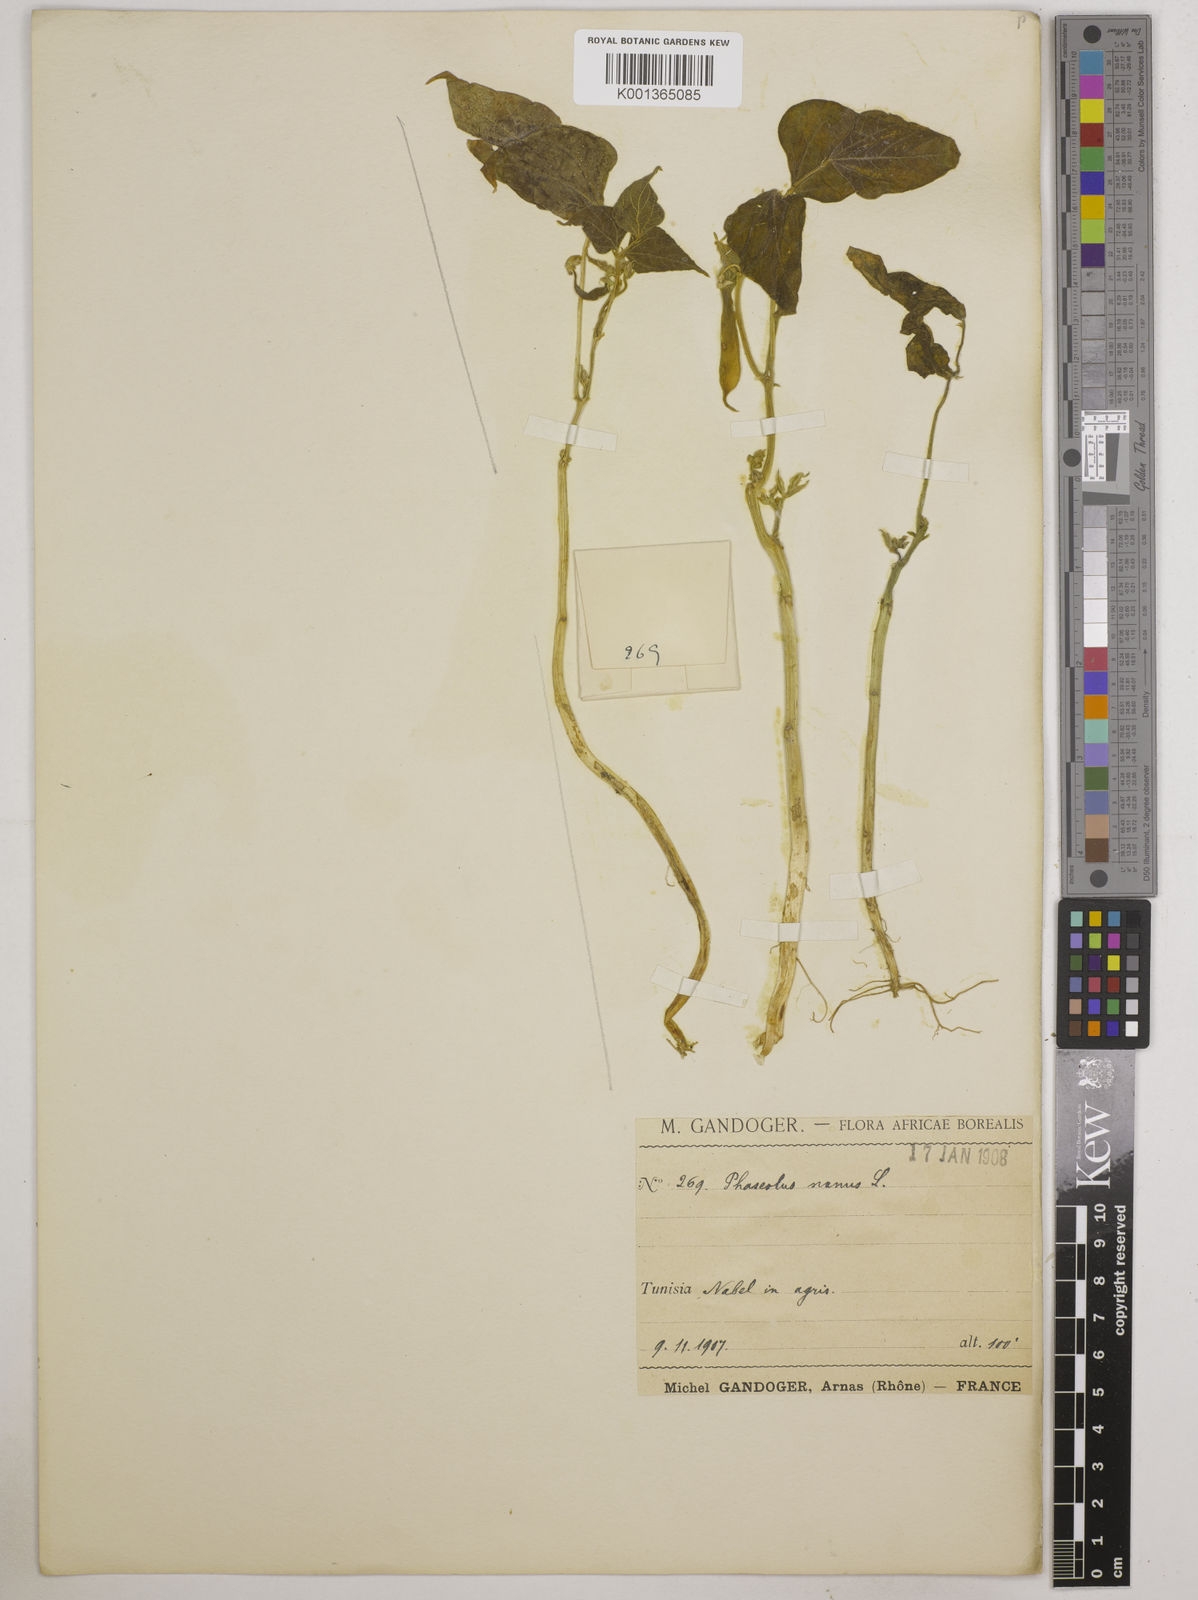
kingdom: Plantae
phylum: Tracheophyta
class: Magnoliopsida
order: Fabales
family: Fabaceae
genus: Phaseolus
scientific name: Phaseolus vulgaris
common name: Bean
